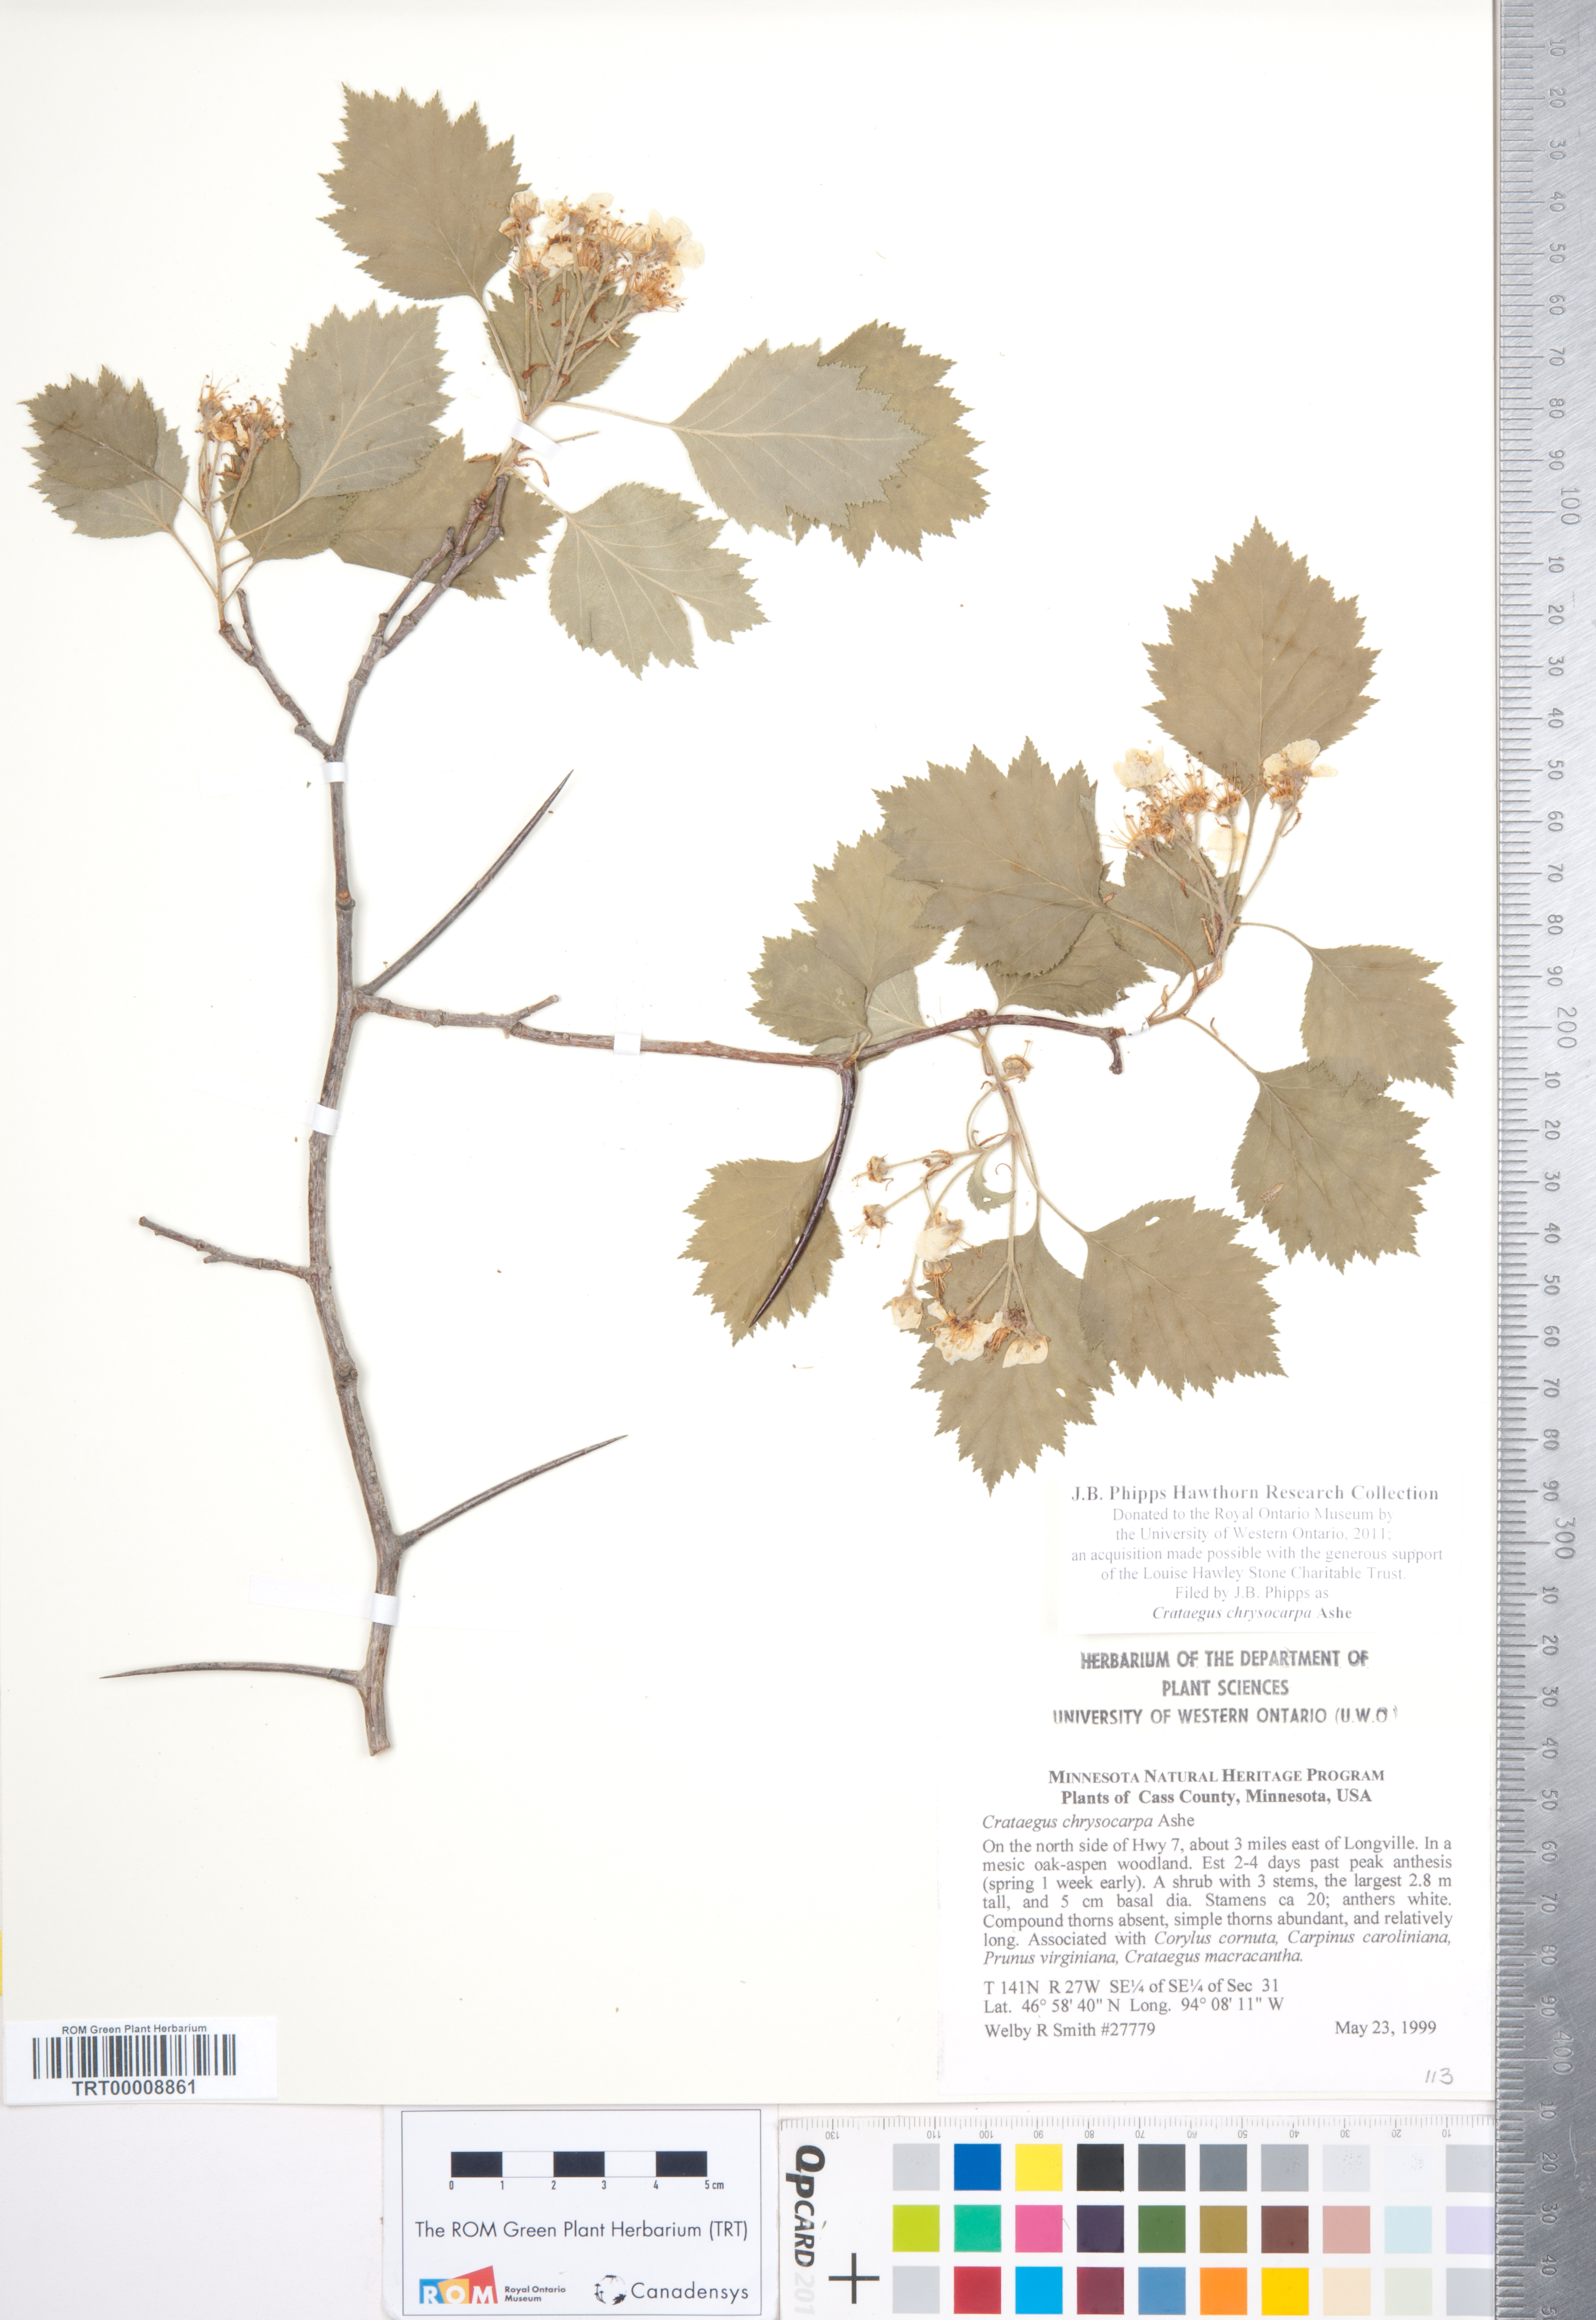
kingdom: Plantae
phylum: Tracheophyta
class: Magnoliopsida
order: Rosales
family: Rosaceae
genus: Crataegus
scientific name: Crataegus chrysocarpa
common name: Fire-berry hawthorn
